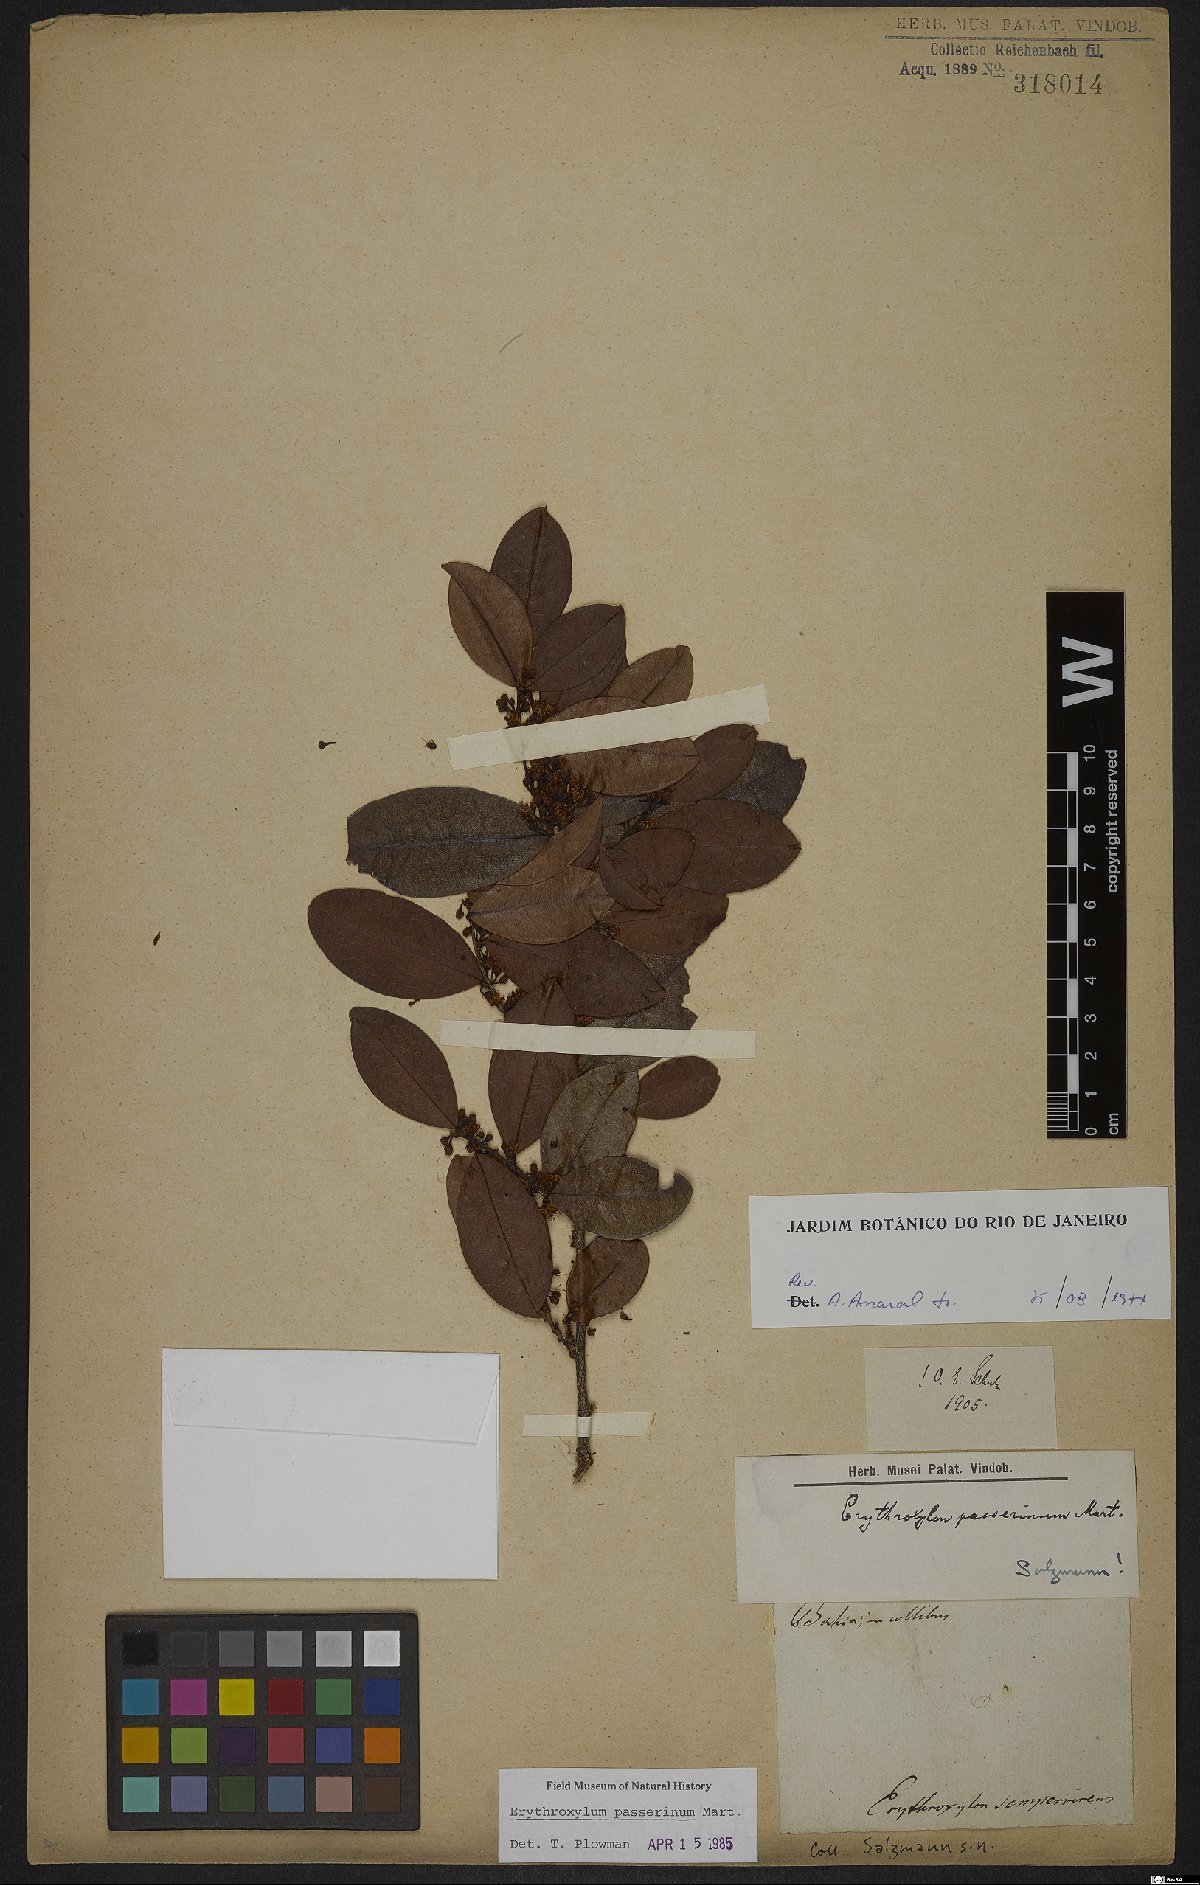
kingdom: Plantae
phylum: Tracheophyta
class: Magnoliopsida
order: Malpighiales
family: Erythroxylaceae
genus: Erythroxylum
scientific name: Erythroxylum passerinum
